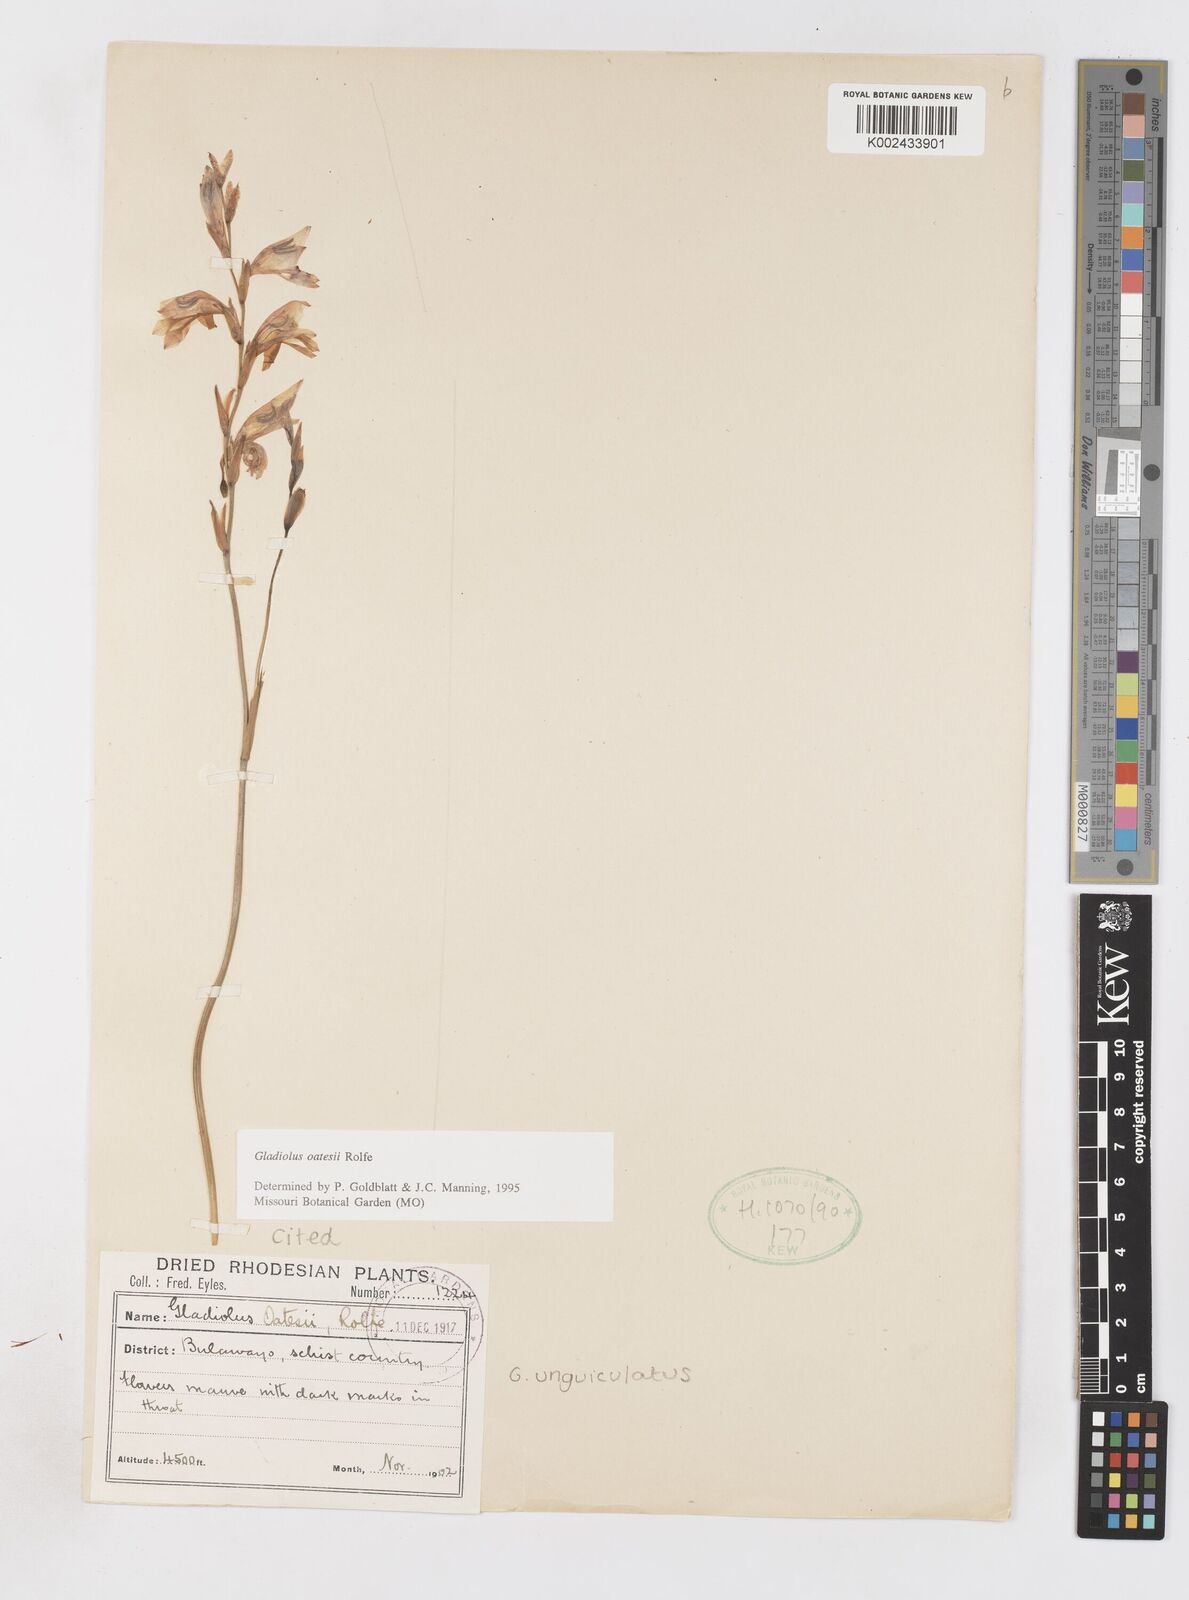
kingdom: Plantae
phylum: Tracheophyta
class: Liliopsida
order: Asparagales
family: Iridaceae
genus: Gladiolus
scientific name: Gladiolus unguiculatus
